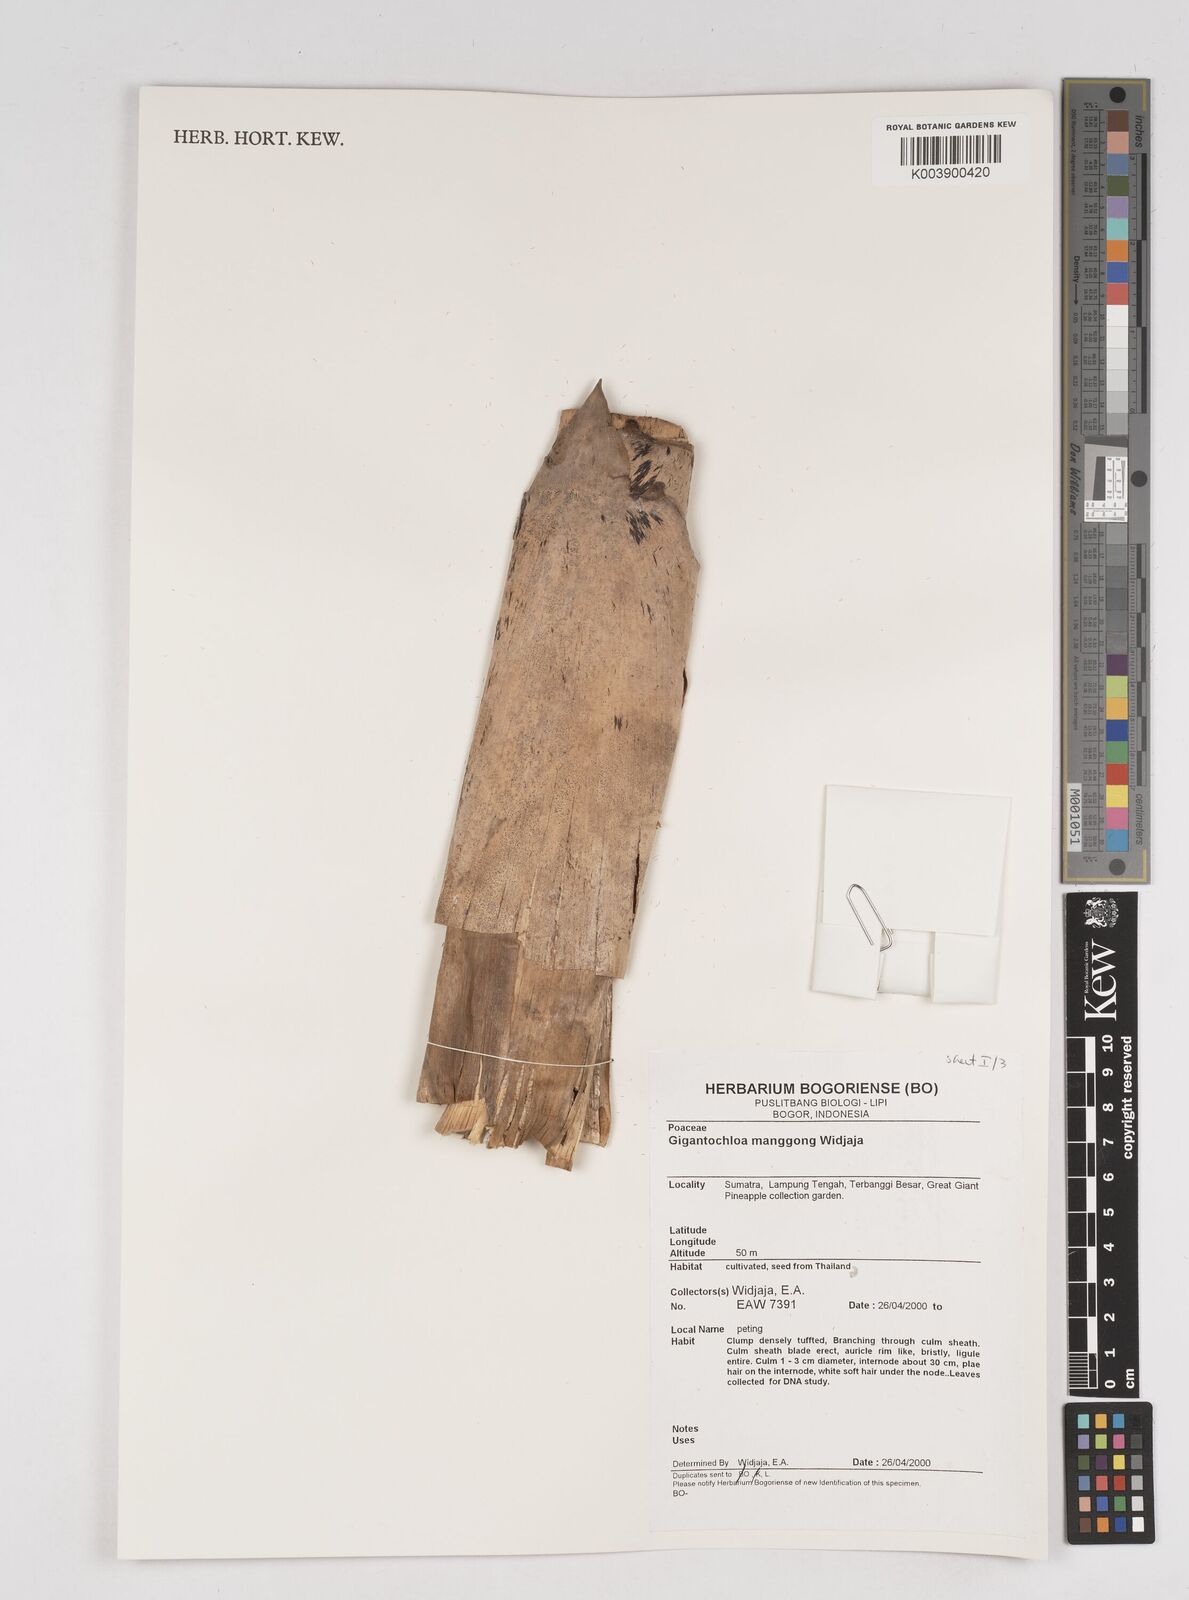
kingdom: Plantae
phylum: Tracheophyta
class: Liliopsida
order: Poales
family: Poaceae
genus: Gigantochloa
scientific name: Gigantochloa manggong
